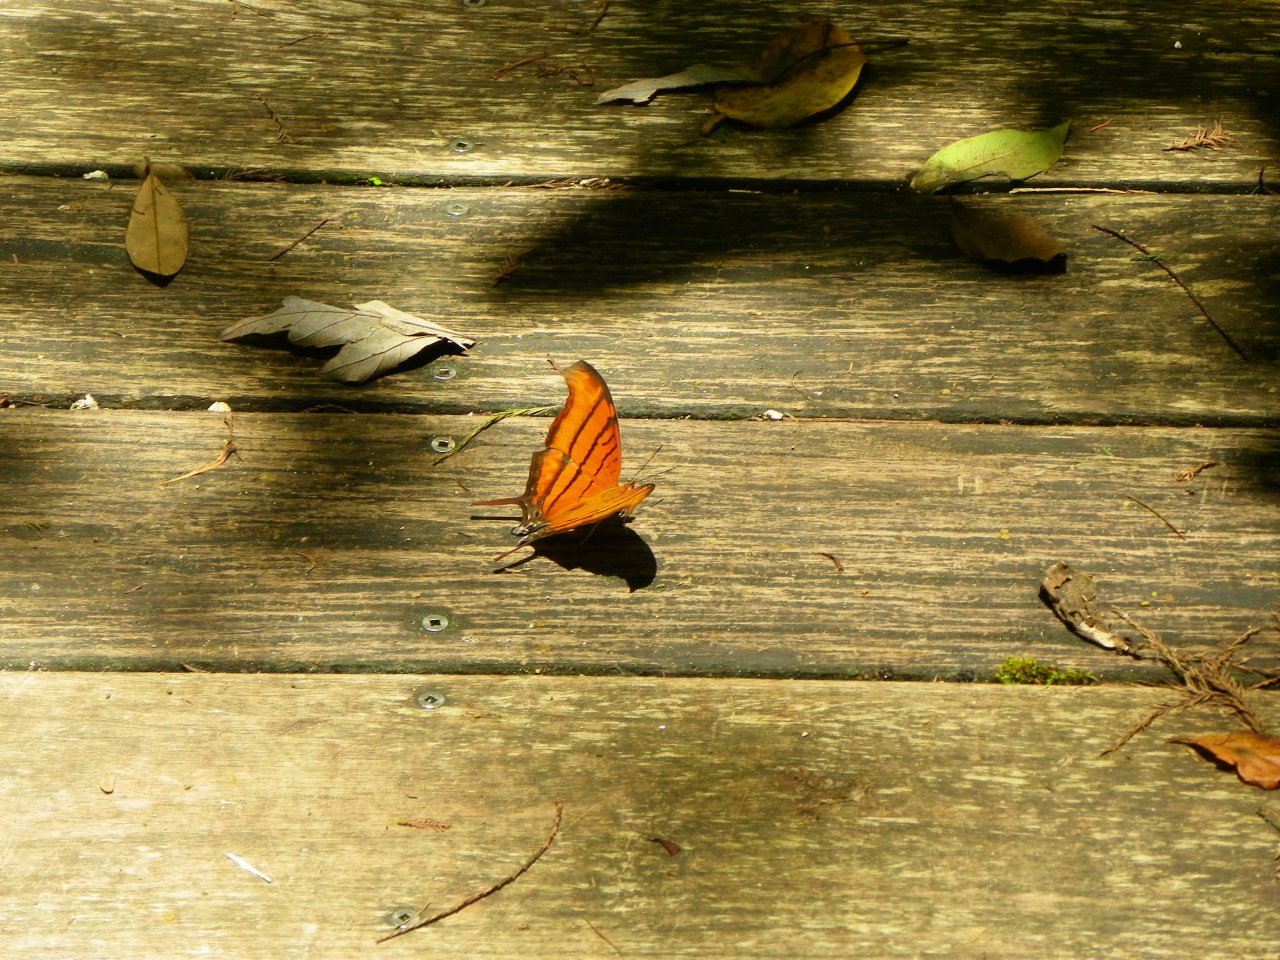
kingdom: Animalia
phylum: Arthropoda
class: Insecta
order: Lepidoptera
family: Nymphalidae
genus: Marpesia
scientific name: Marpesia petreus
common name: Ruddy Daggerwing
